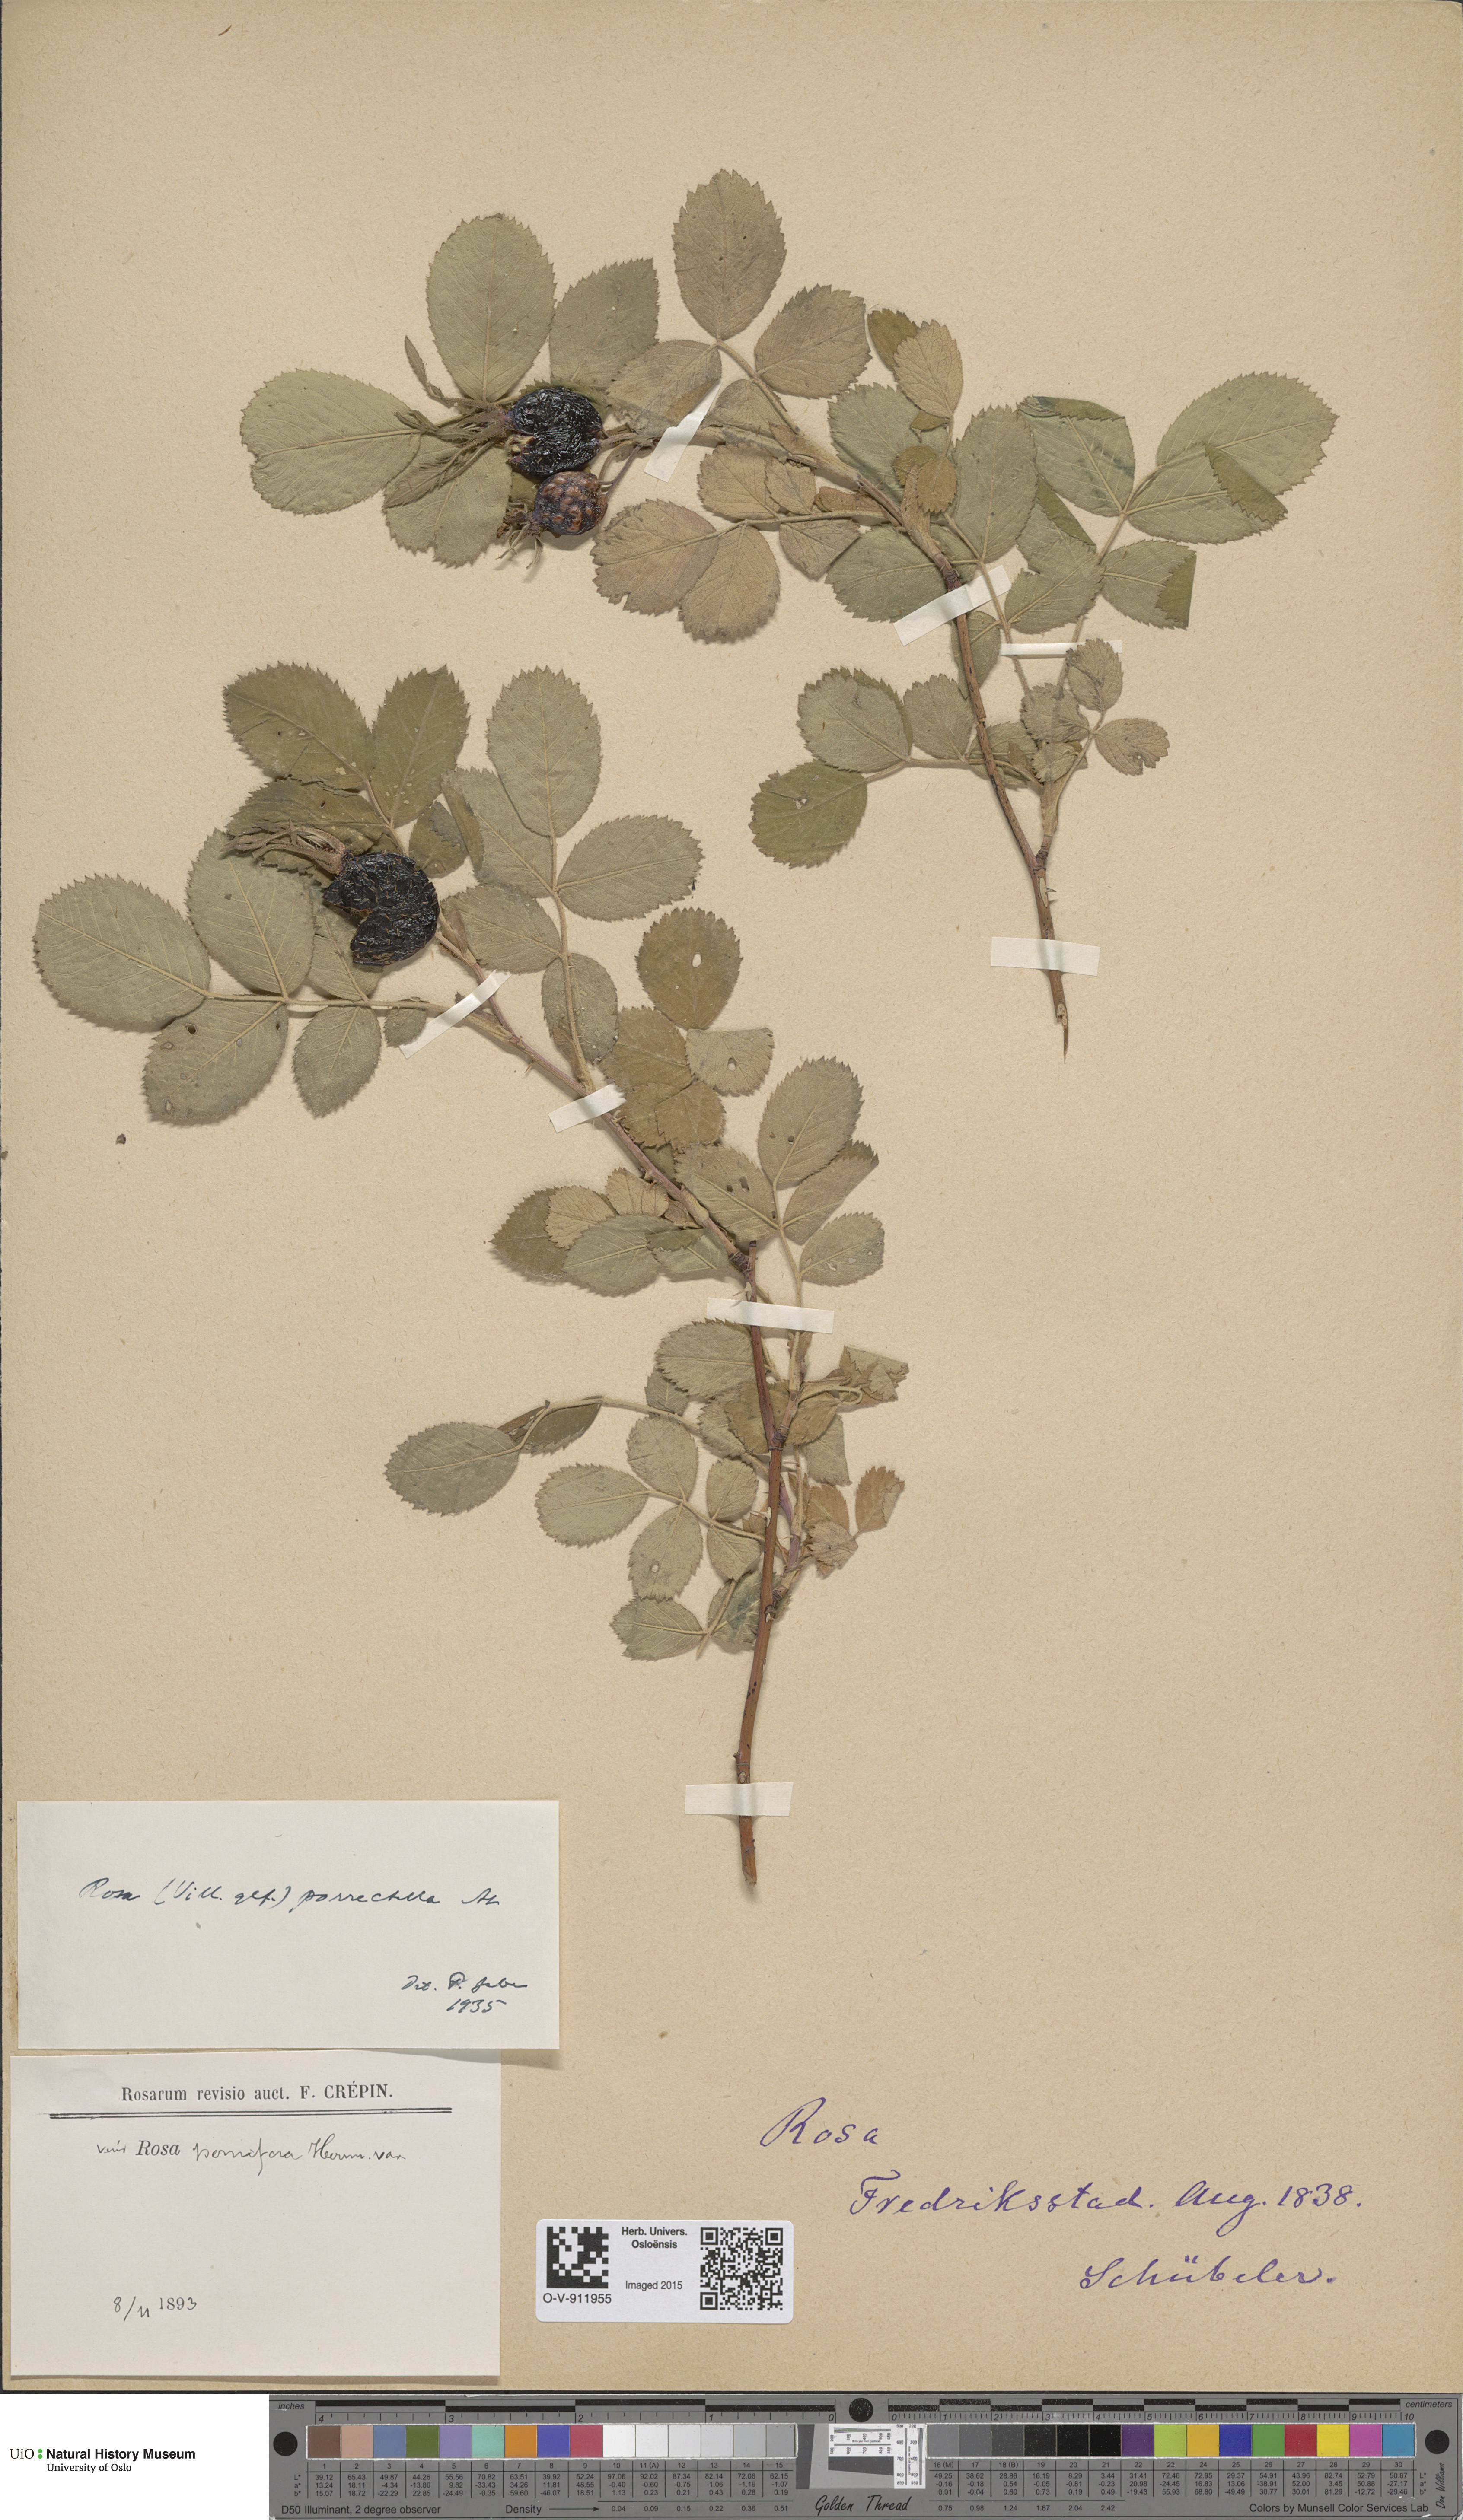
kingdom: Plantae
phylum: Tracheophyta
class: Magnoliopsida
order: Rosales
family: Rosaceae
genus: Rosa
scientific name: Rosa mollis
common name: Rose
